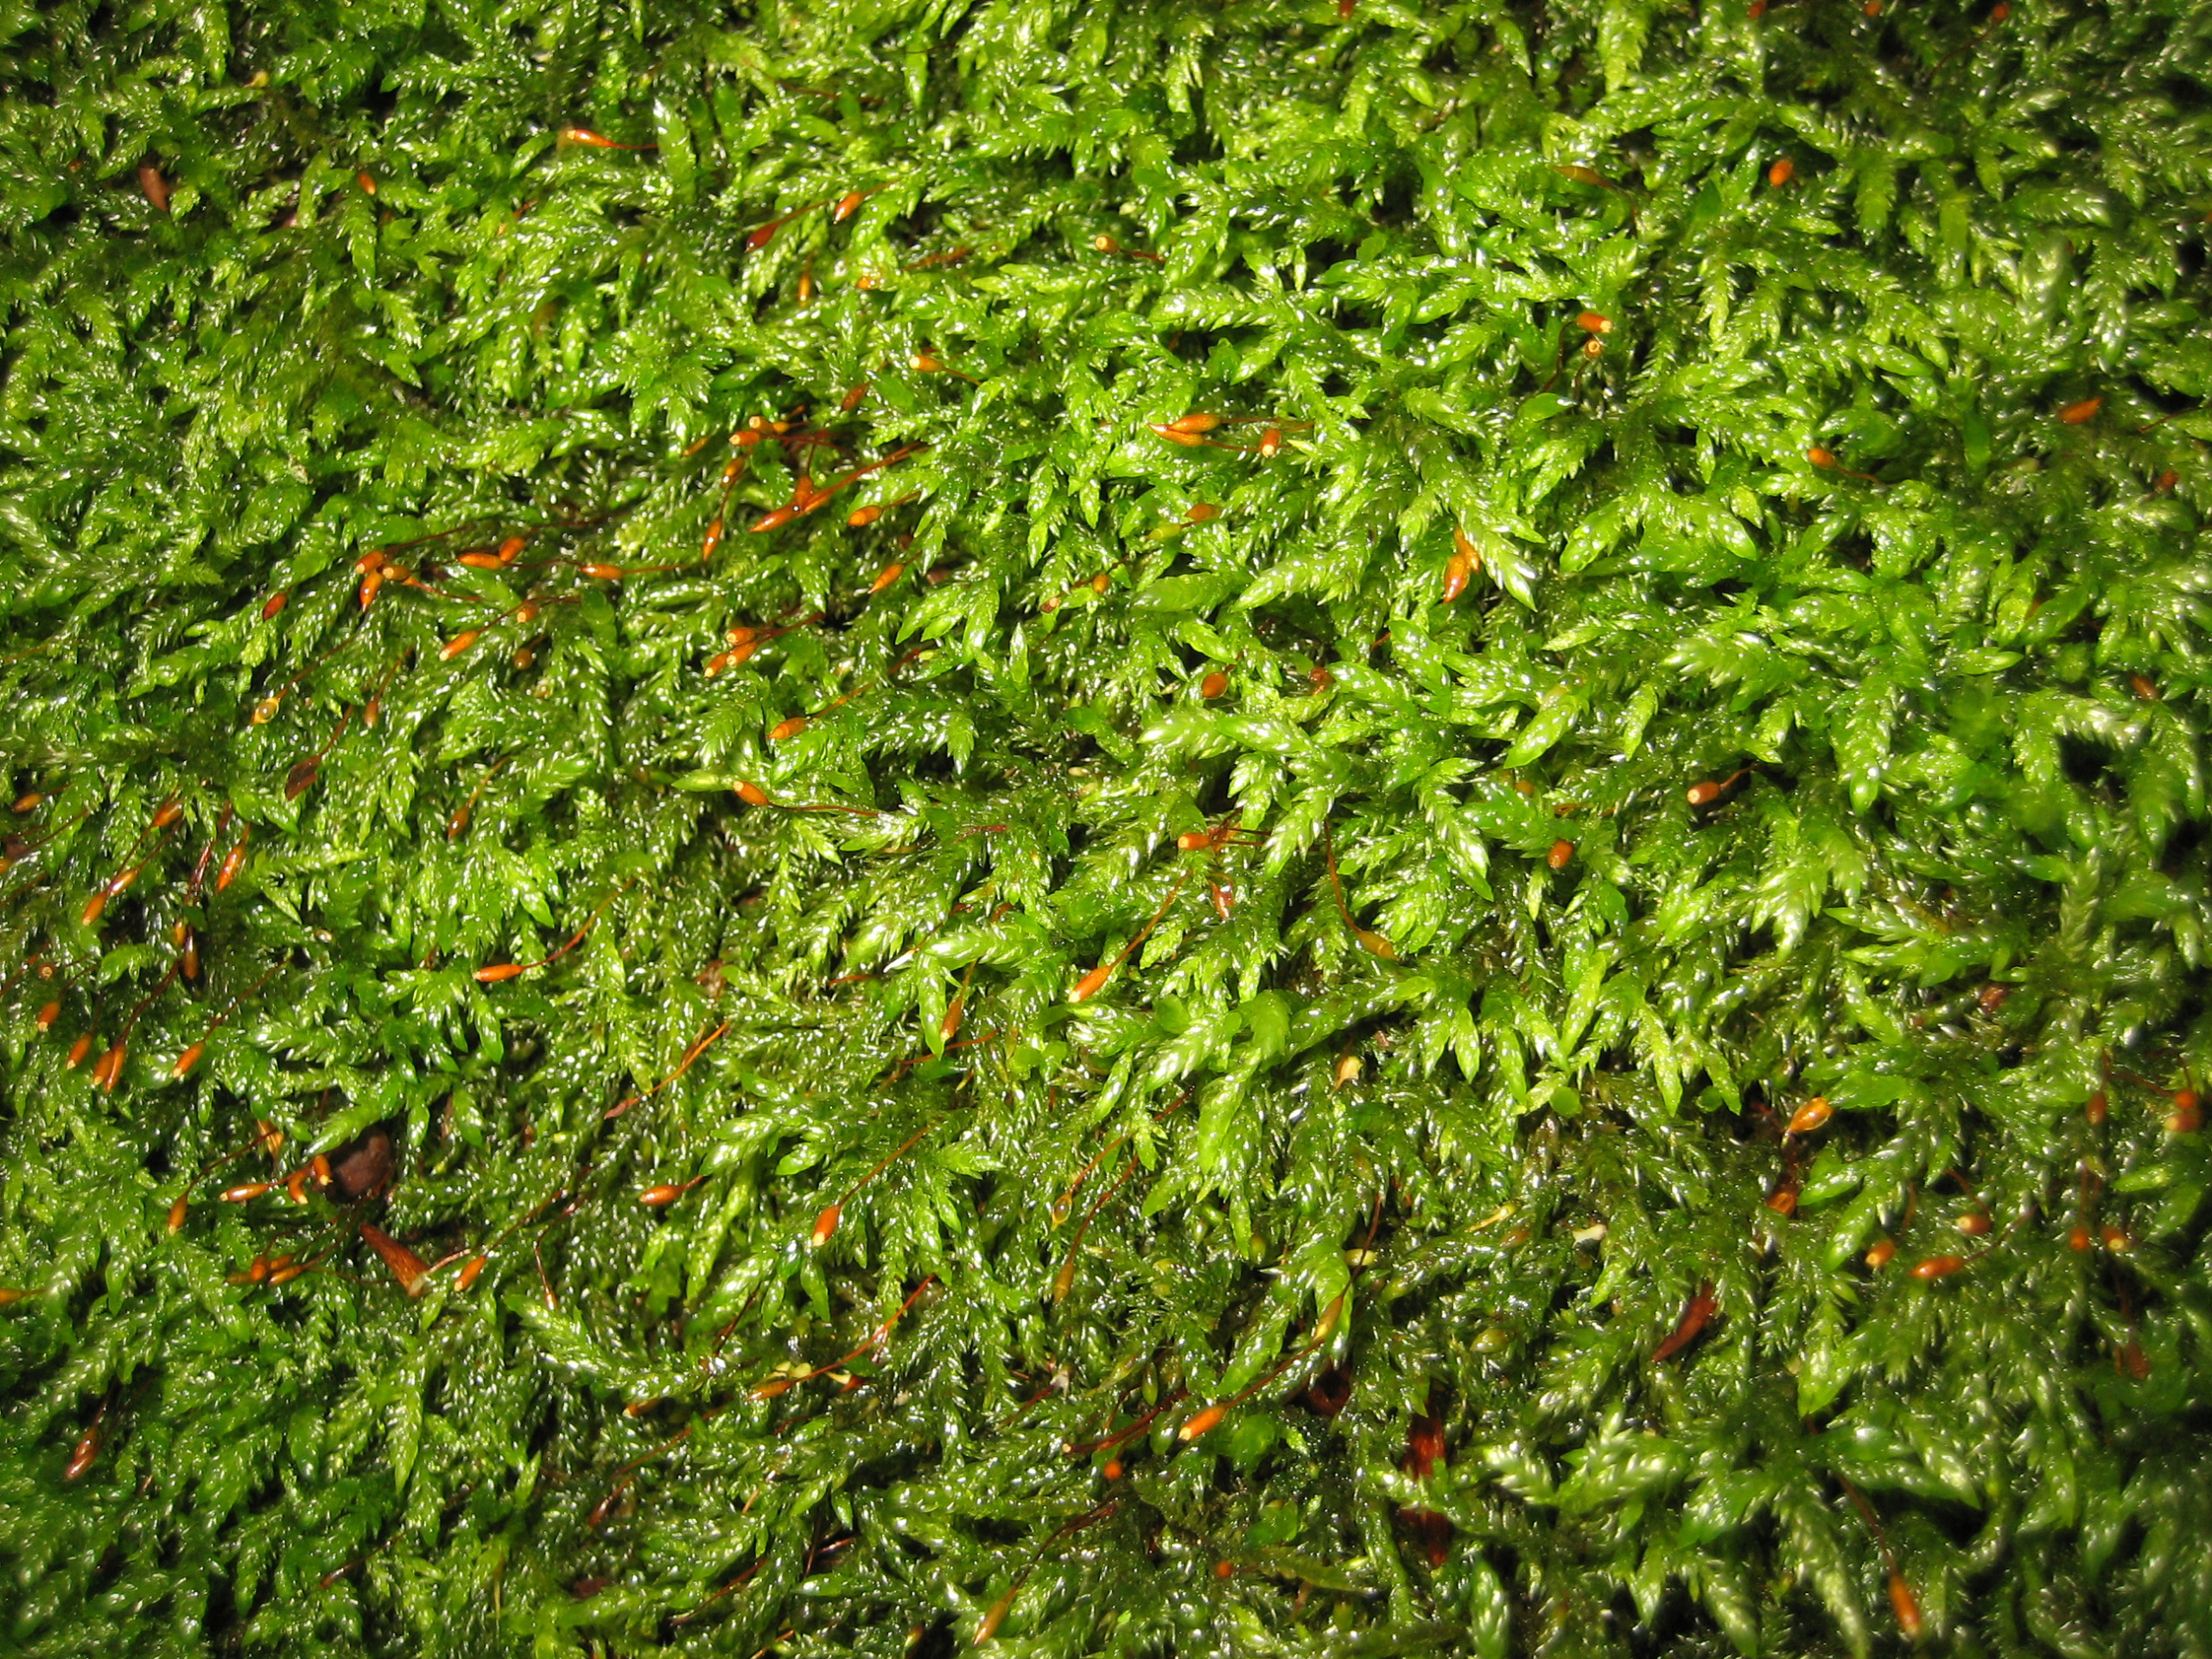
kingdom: Plantae
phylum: Bryophyta
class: Bryopsida
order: Hypnales
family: Lembophyllaceae
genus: Isothecium
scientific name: Isothecium alopecuroides
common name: Stor stammemos
